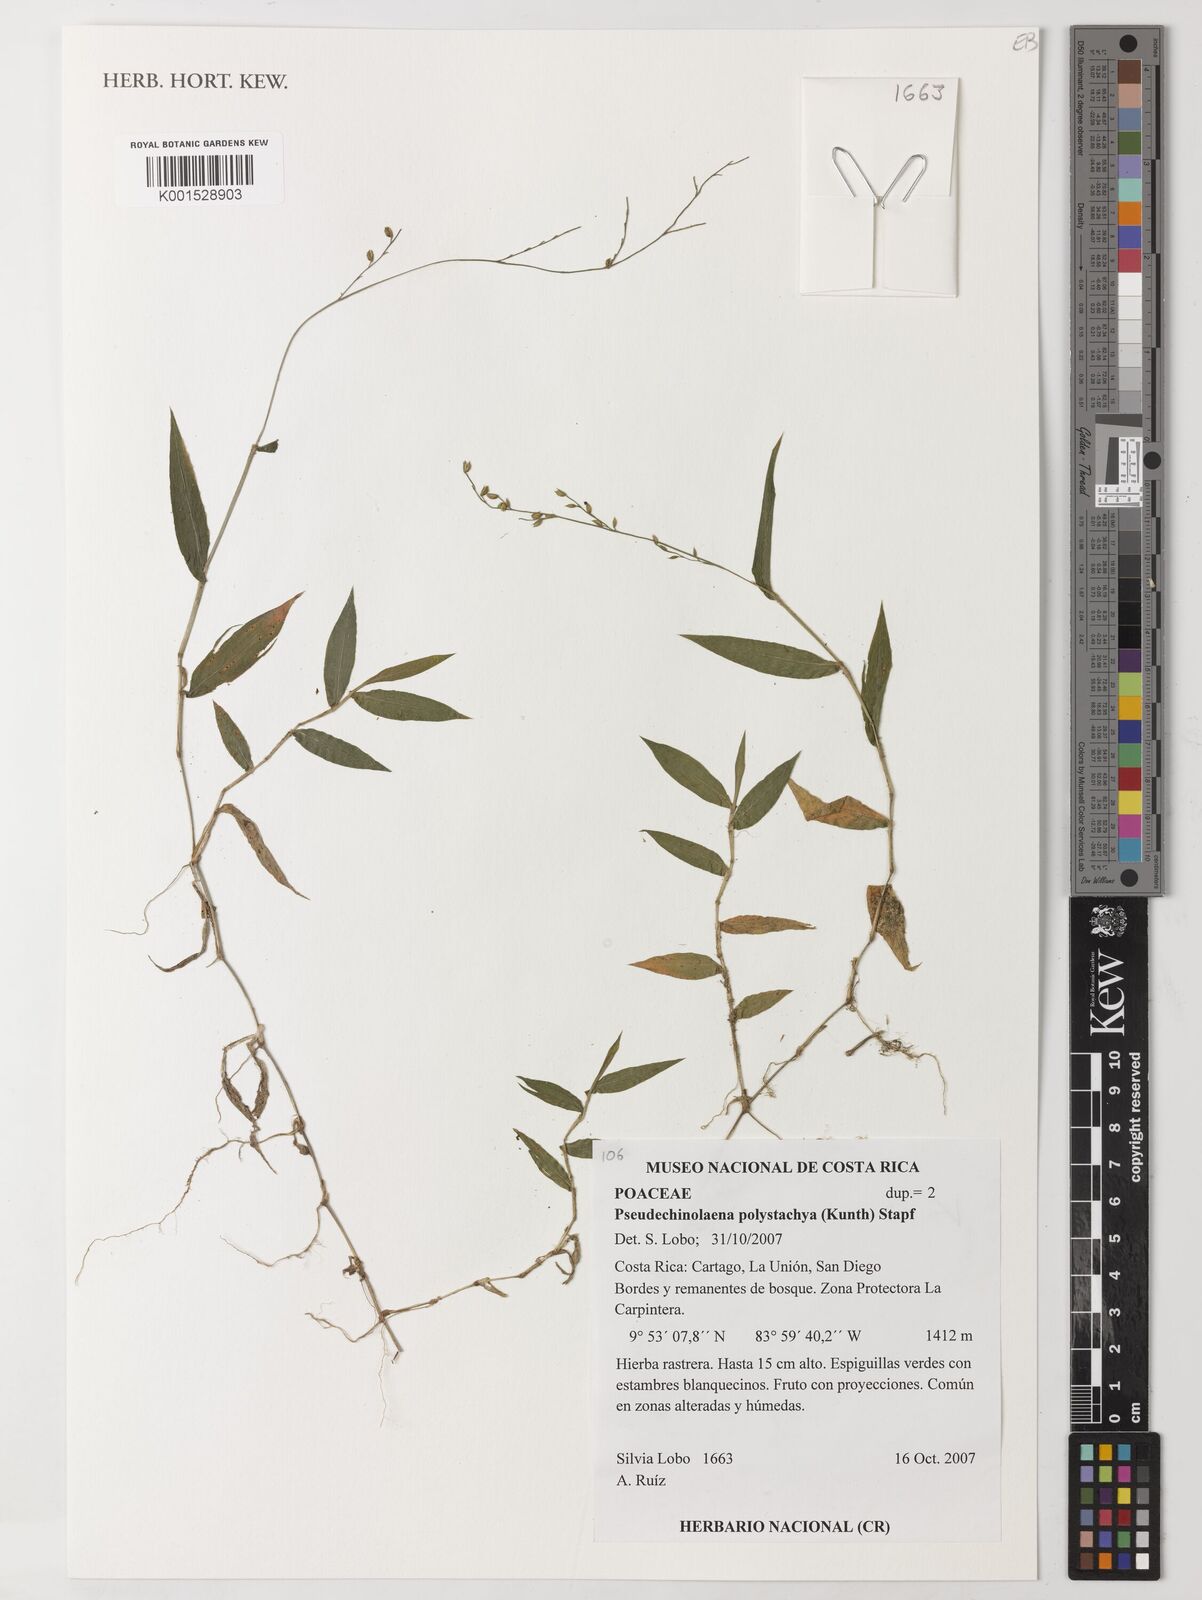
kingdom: Plantae
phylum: Tracheophyta
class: Liliopsida
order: Poales
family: Poaceae
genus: Pseudechinolaena
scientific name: Pseudechinolaena polystachya
